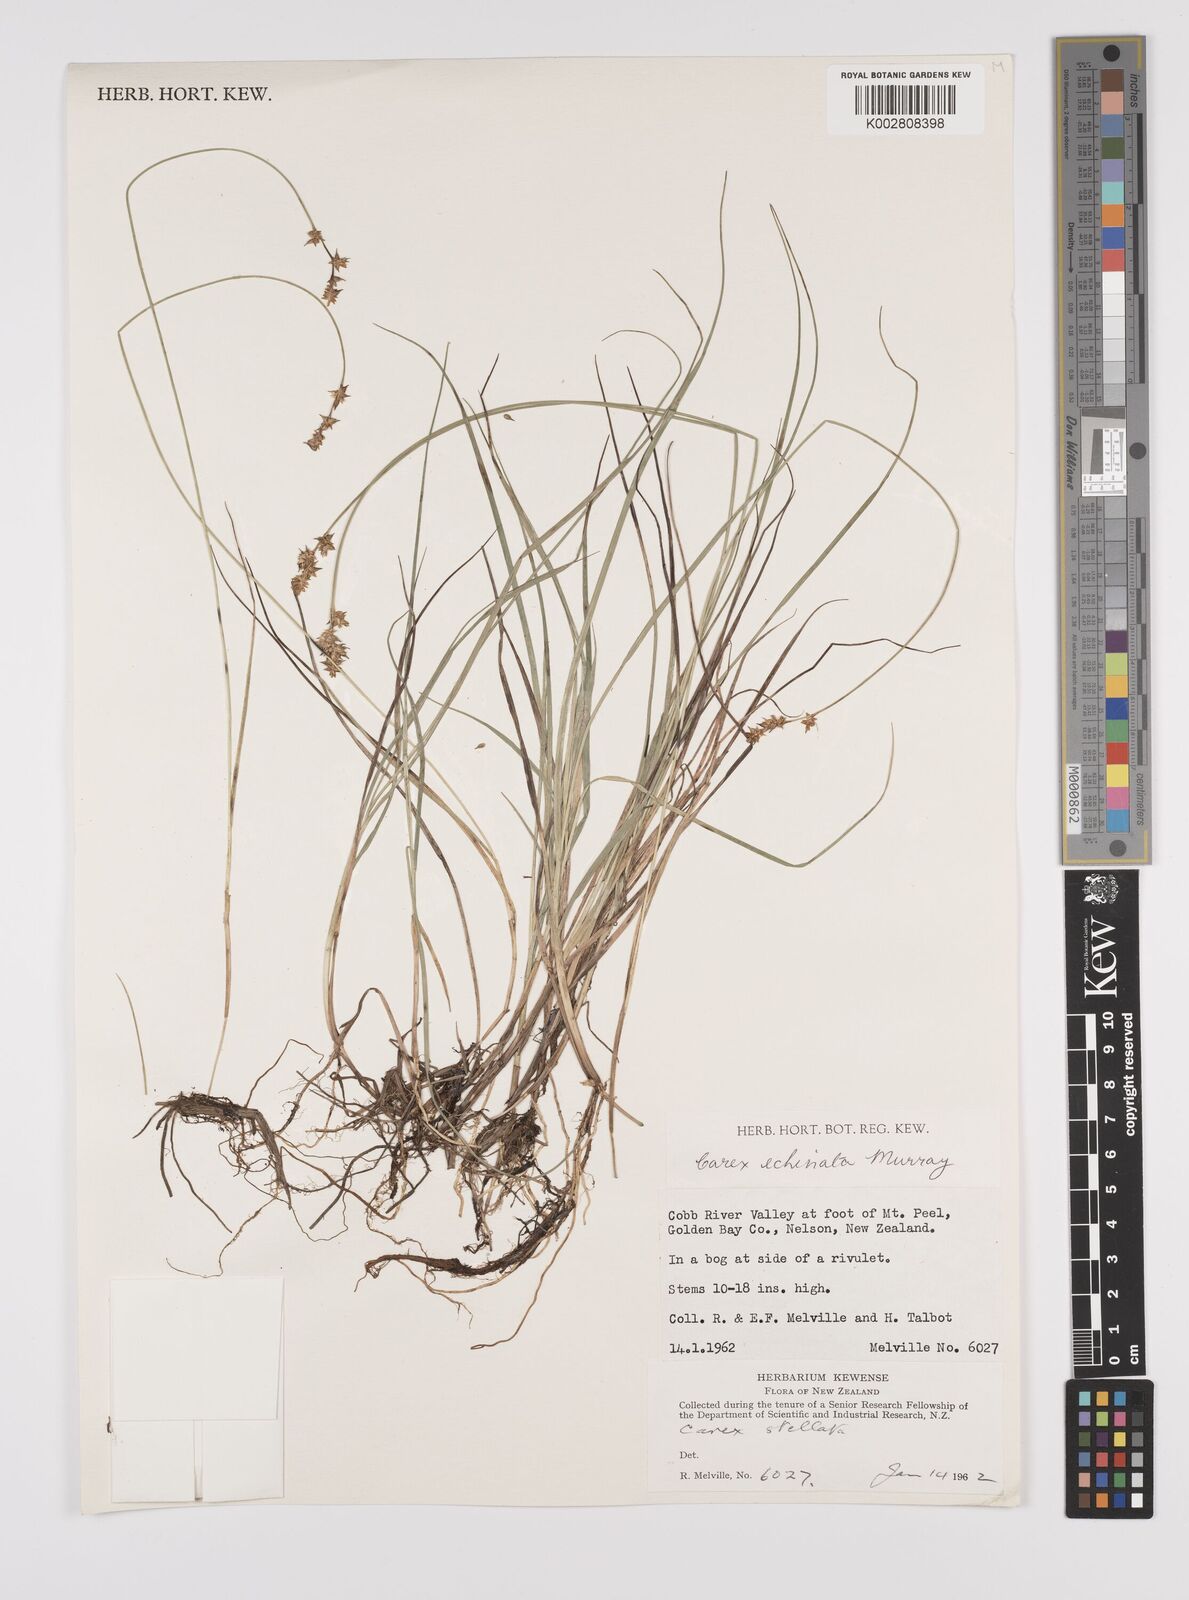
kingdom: Plantae
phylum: Tracheophyta
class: Liliopsida
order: Poales
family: Cyperaceae
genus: Carex
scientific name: Carex echinata
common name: Star sedge
